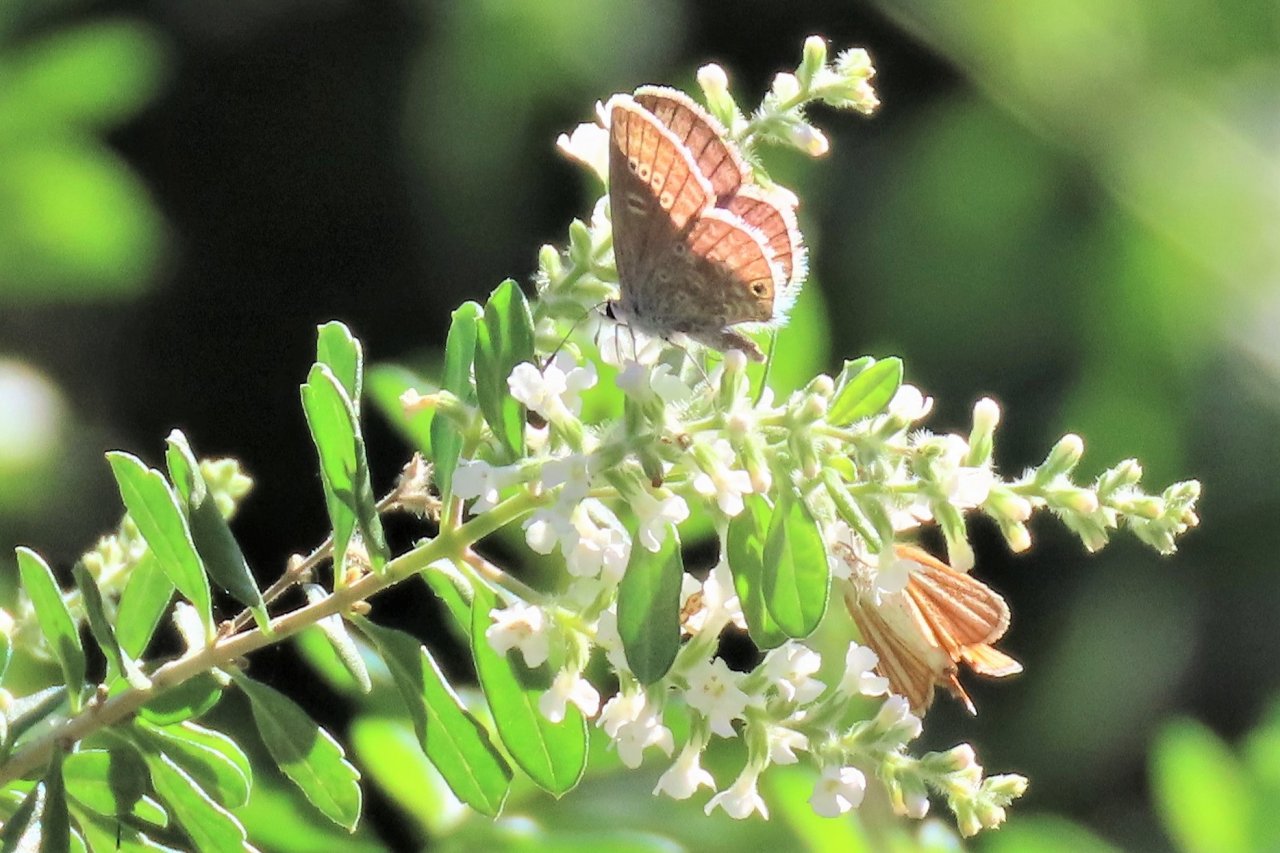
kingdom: Animalia
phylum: Arthropoda
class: Insecta
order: Lepidoptera
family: Lycaenidae
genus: Echinargus
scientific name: Echinargus isola
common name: Reakirt's Blue
